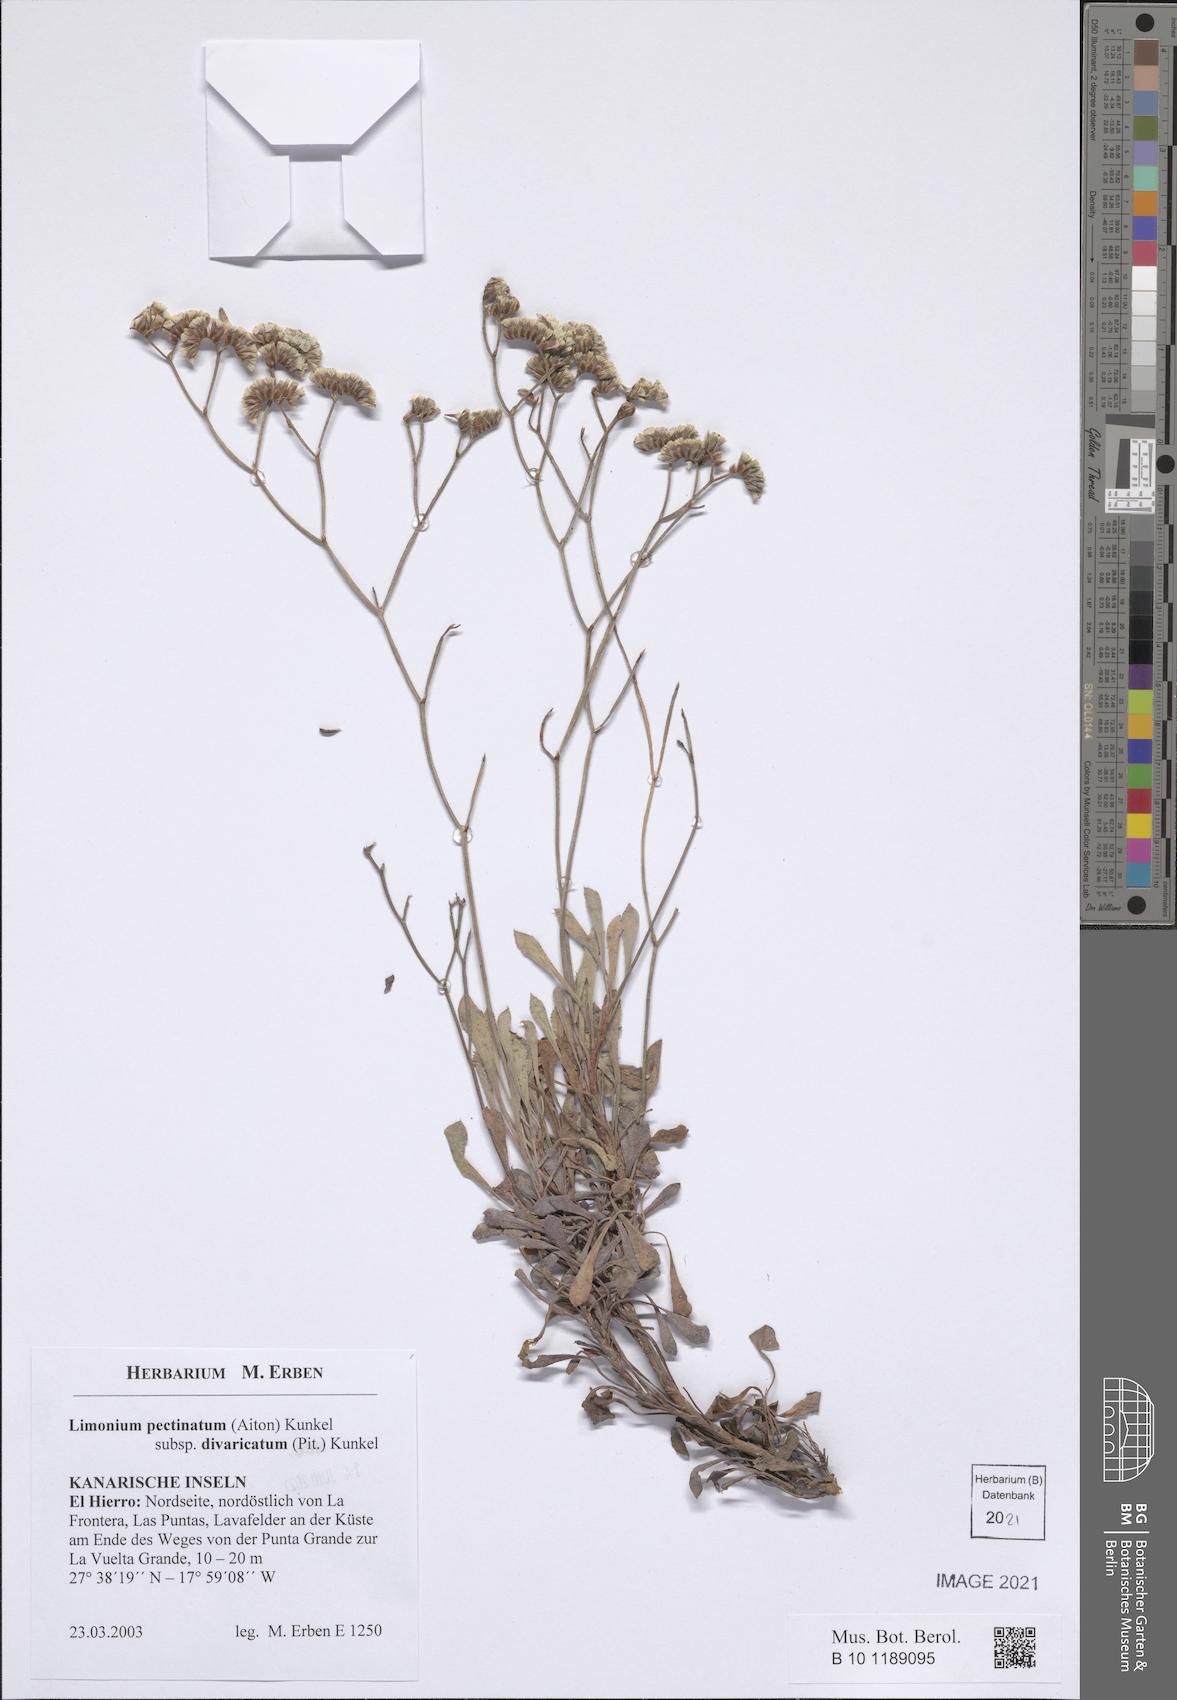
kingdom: Plantae
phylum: Tracheophyta
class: Magnoliopsida
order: Caryophyllales
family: Plumbaginaceae
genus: Limonium
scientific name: Limonium pectinatum
